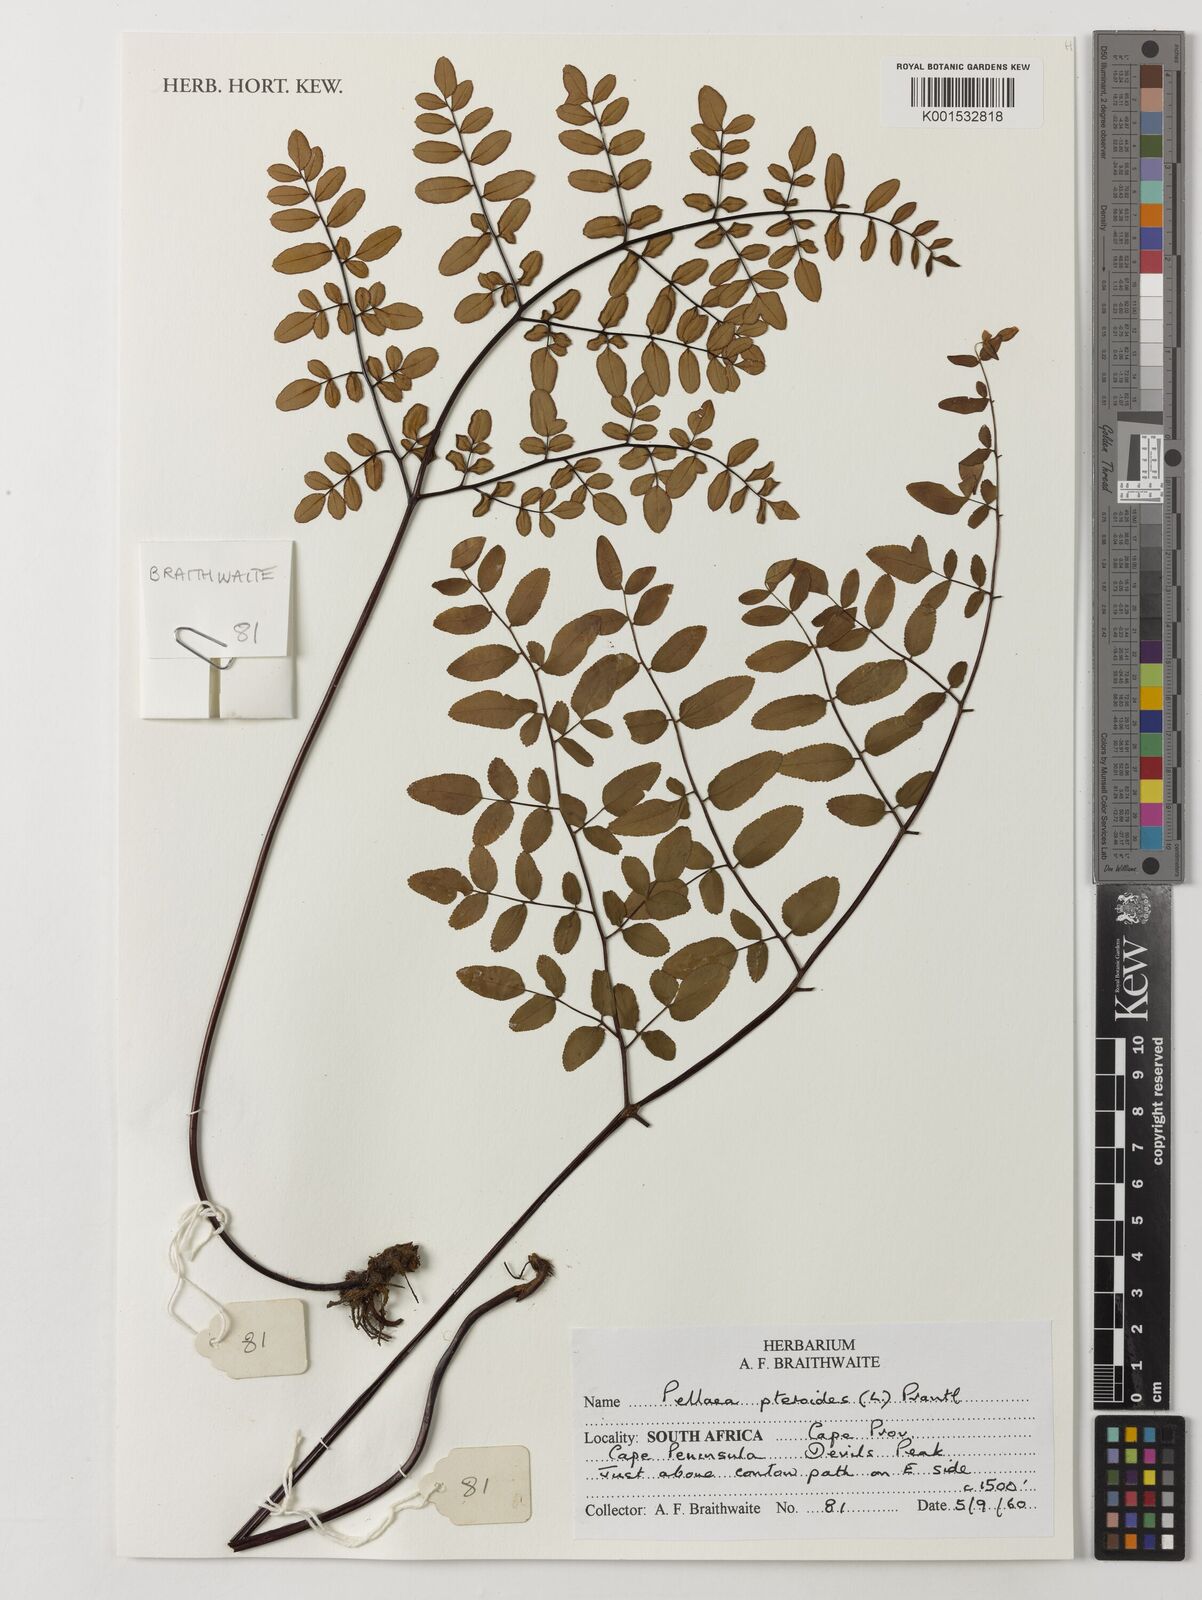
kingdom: Plantae
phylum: Tracheophyta
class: Polypodiopsida
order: Polypodiales
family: Pteridaceae
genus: Pellaea
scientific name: Pellaea pteroides
